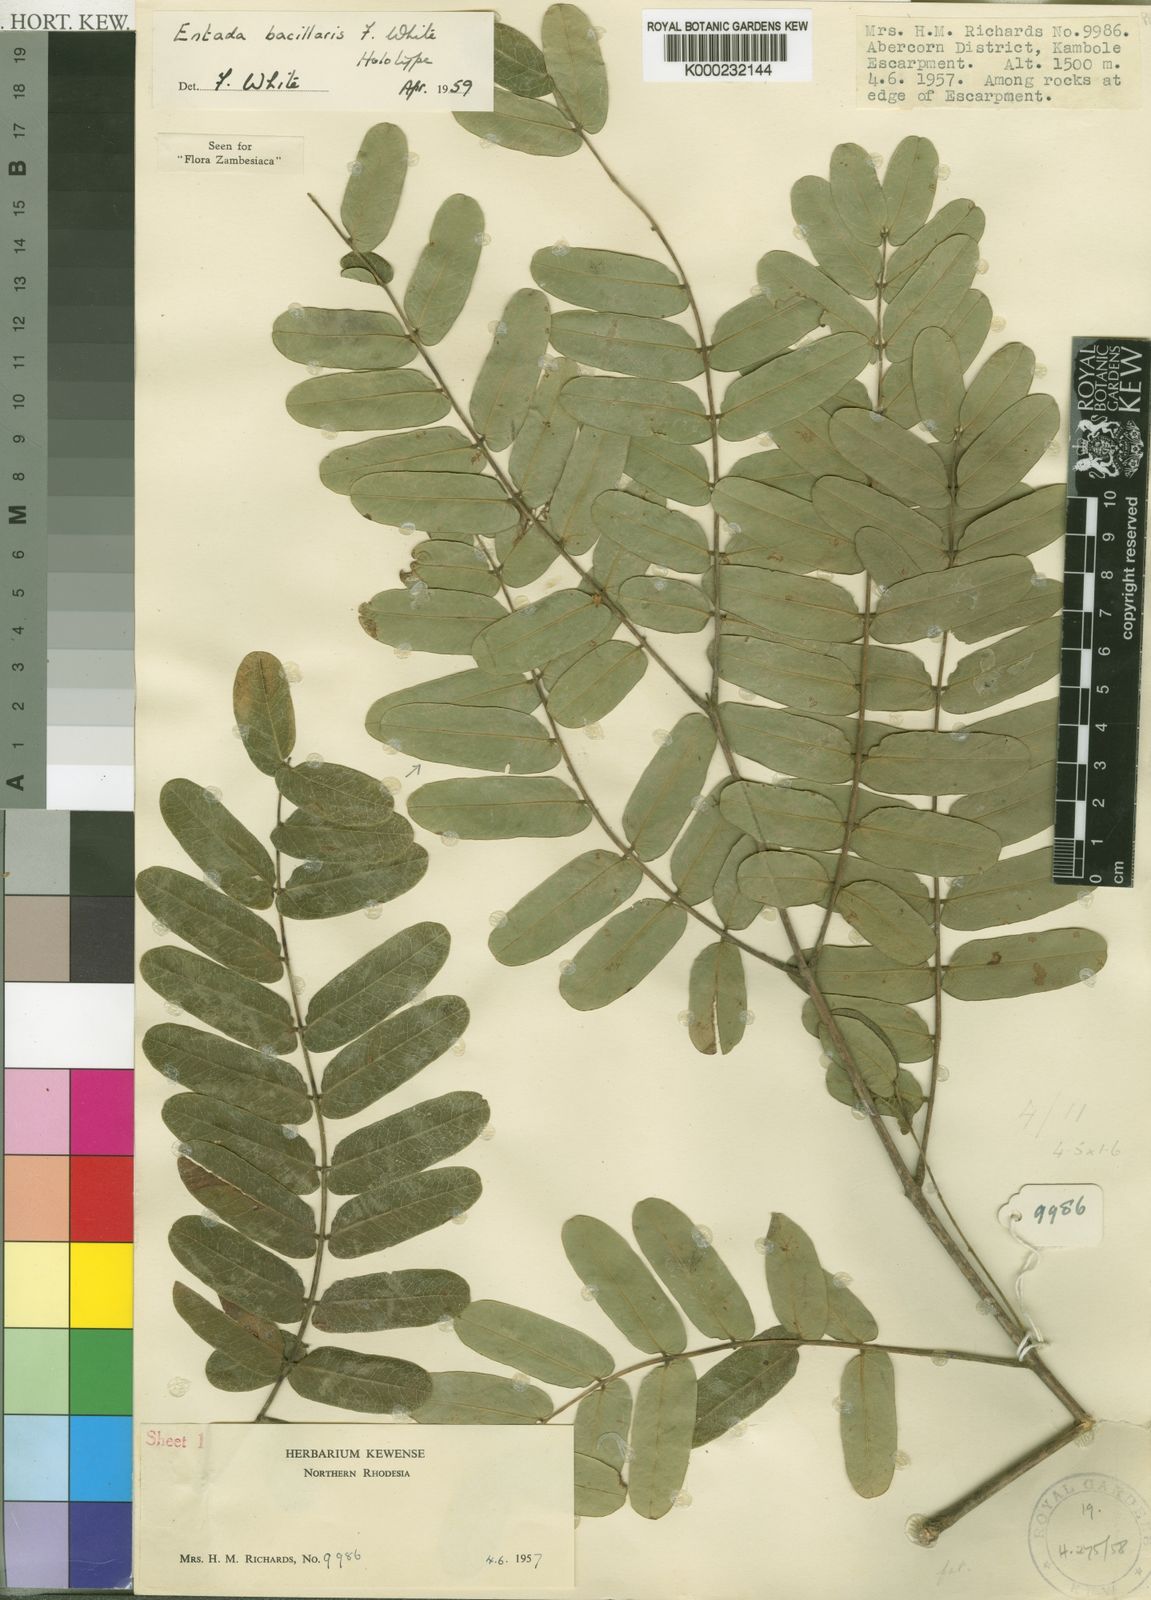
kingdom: Plantae
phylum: Tracheophyta
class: Magnoliopsida
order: Fabales
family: Fabaceae
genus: Entada
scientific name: Entada bacillaris
